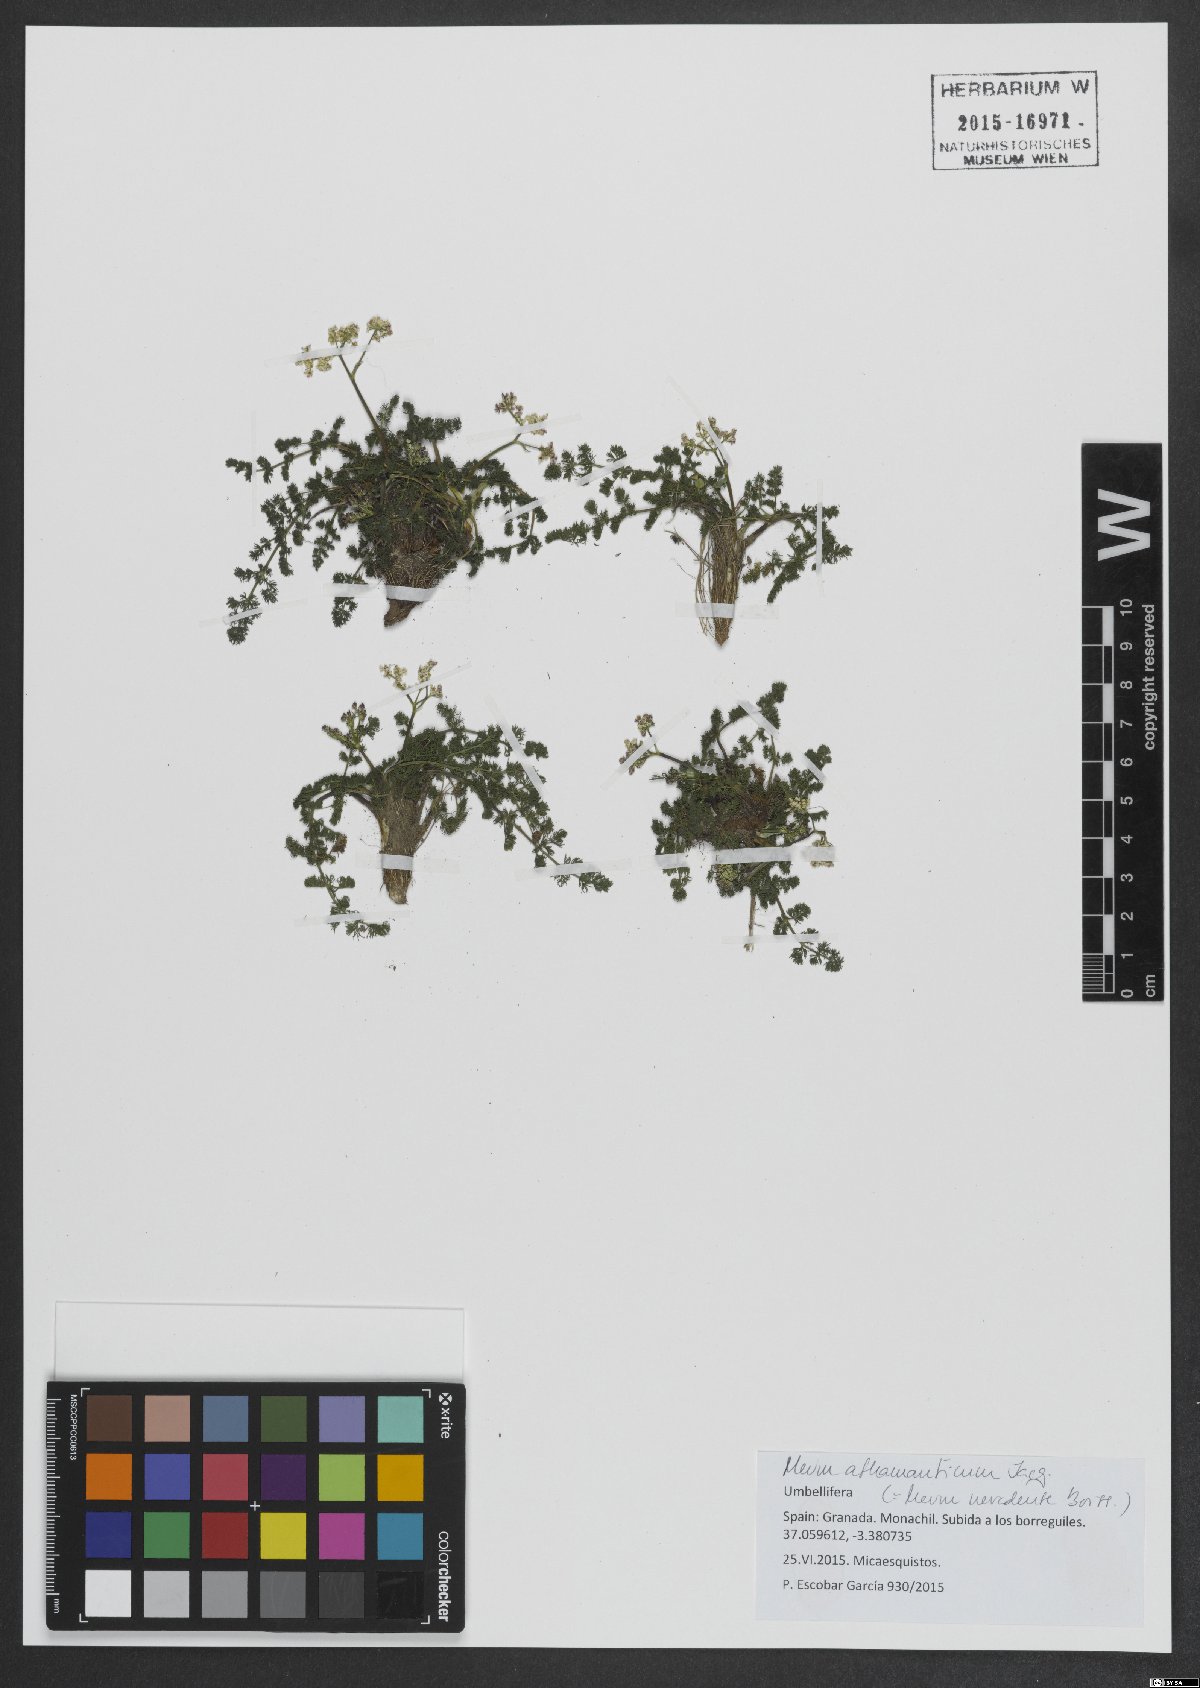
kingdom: Plantae
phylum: Tracheophyta
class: Magnoliopsida
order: Apiales
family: Apiaceae
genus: Meum
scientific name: Meum athamanticum
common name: Spignel
